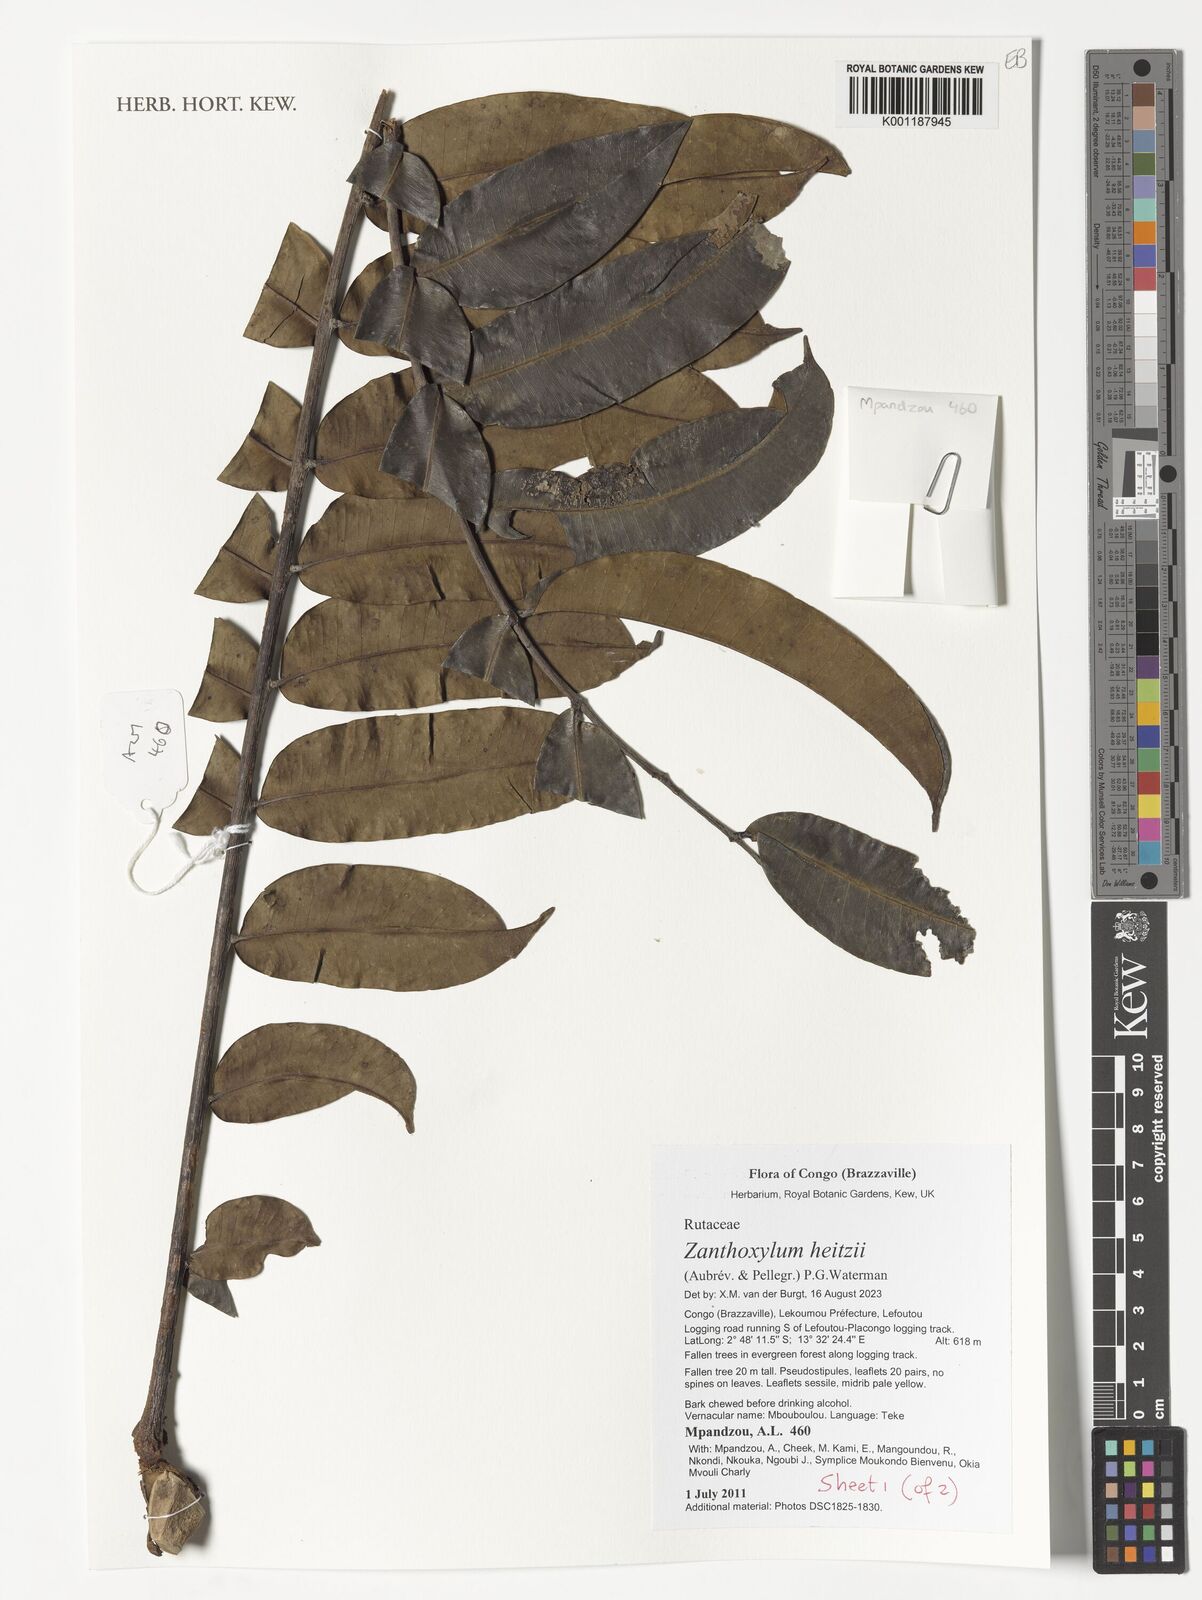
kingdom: Plantae
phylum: Tracheophyta
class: Magnoliopsida
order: Sapindales
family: Rutaceae
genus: Zanthoxylum
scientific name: Zanthoxylum heitzii
